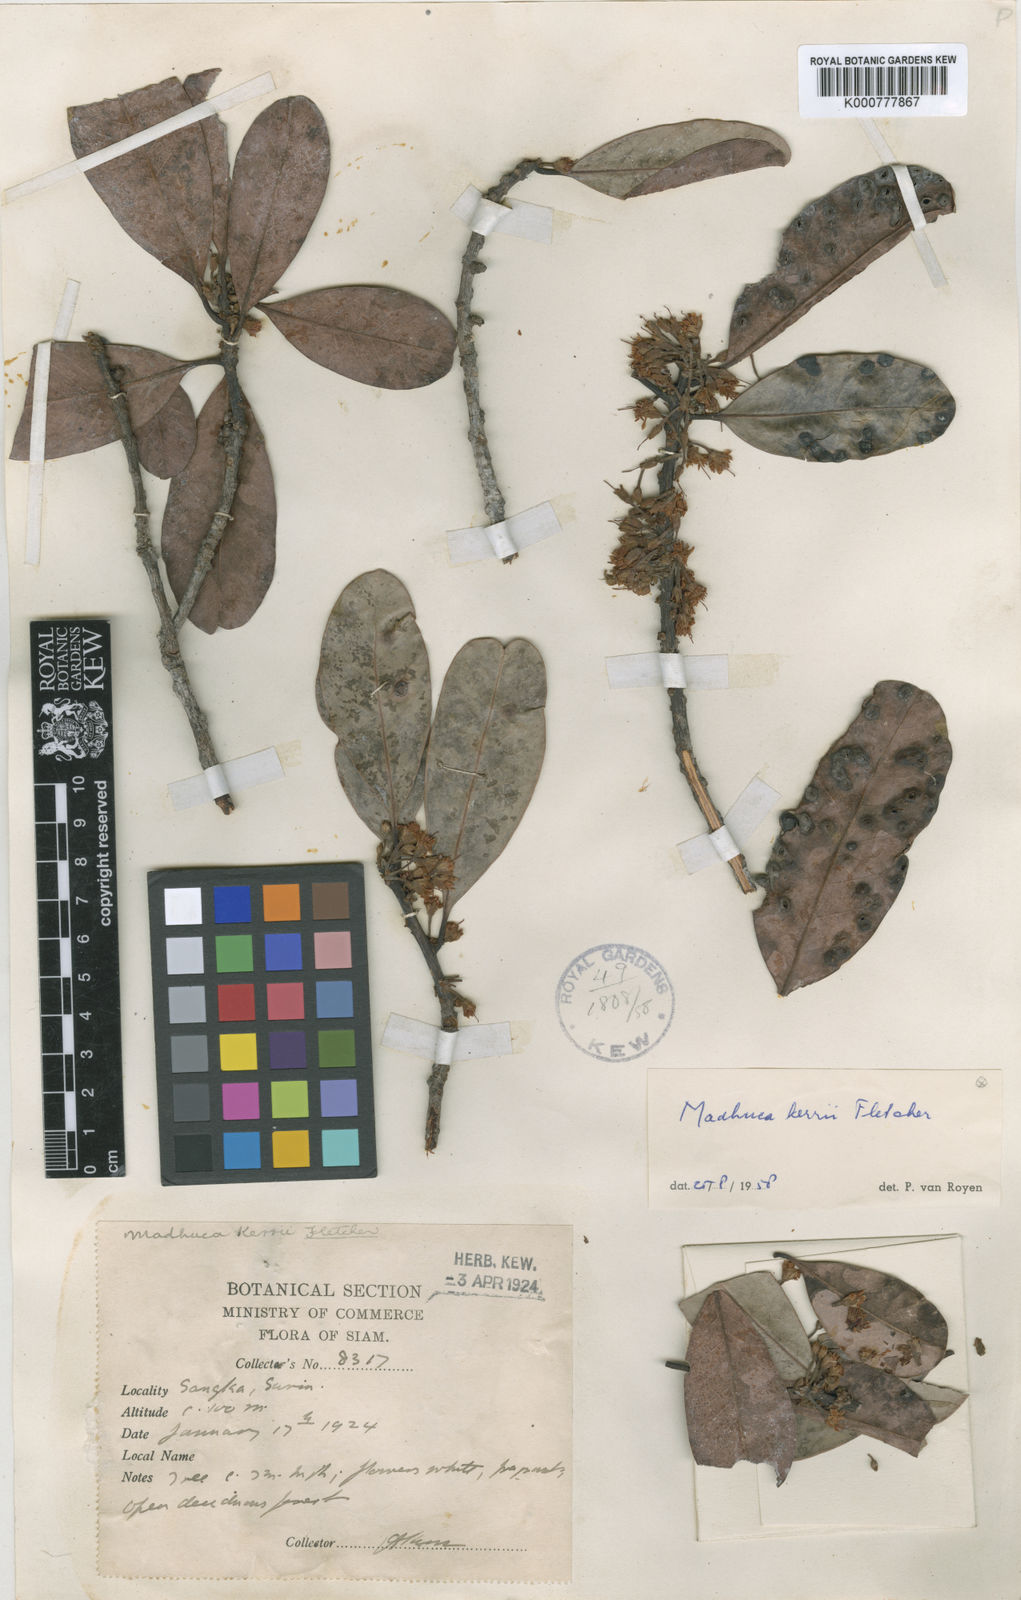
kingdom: Plantae
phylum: Tracheophyta
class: Magnoliopsida
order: Ericales
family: Sapotaceae
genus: Madhuca
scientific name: Madhuca thorelii
